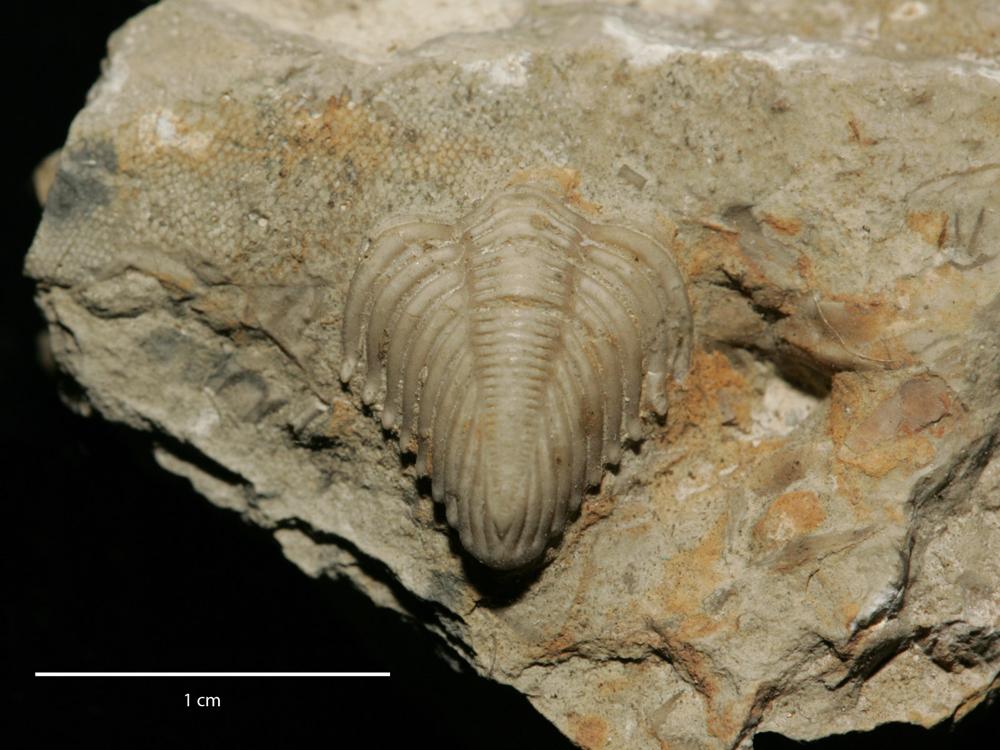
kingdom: Animalia
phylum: Arthropoda
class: Trilobita
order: Phacopida
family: Encrinuridae
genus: Encrinurus
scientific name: Encrinurus
